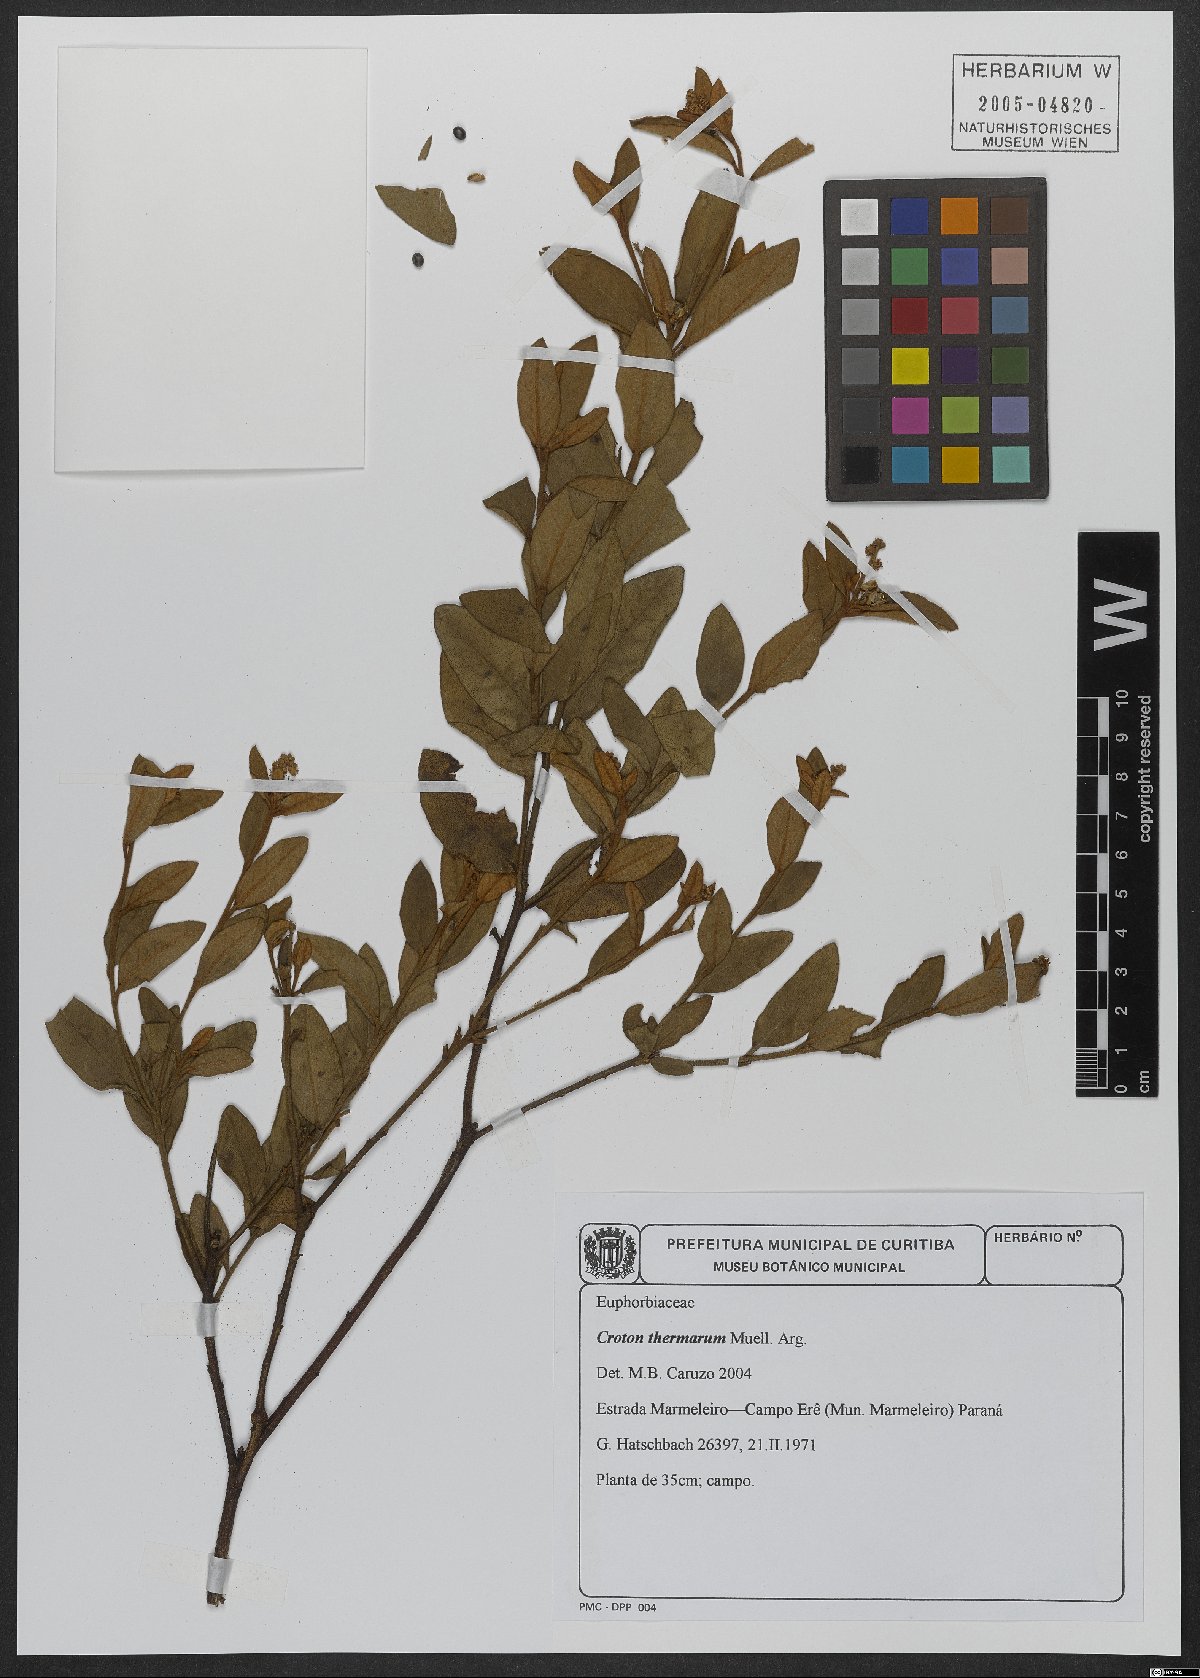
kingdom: Plantae
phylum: Tracheophyta
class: Magnoliopsida
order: Malpighiales
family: Euphorbiaceae
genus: Croton
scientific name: Croton lanatus
